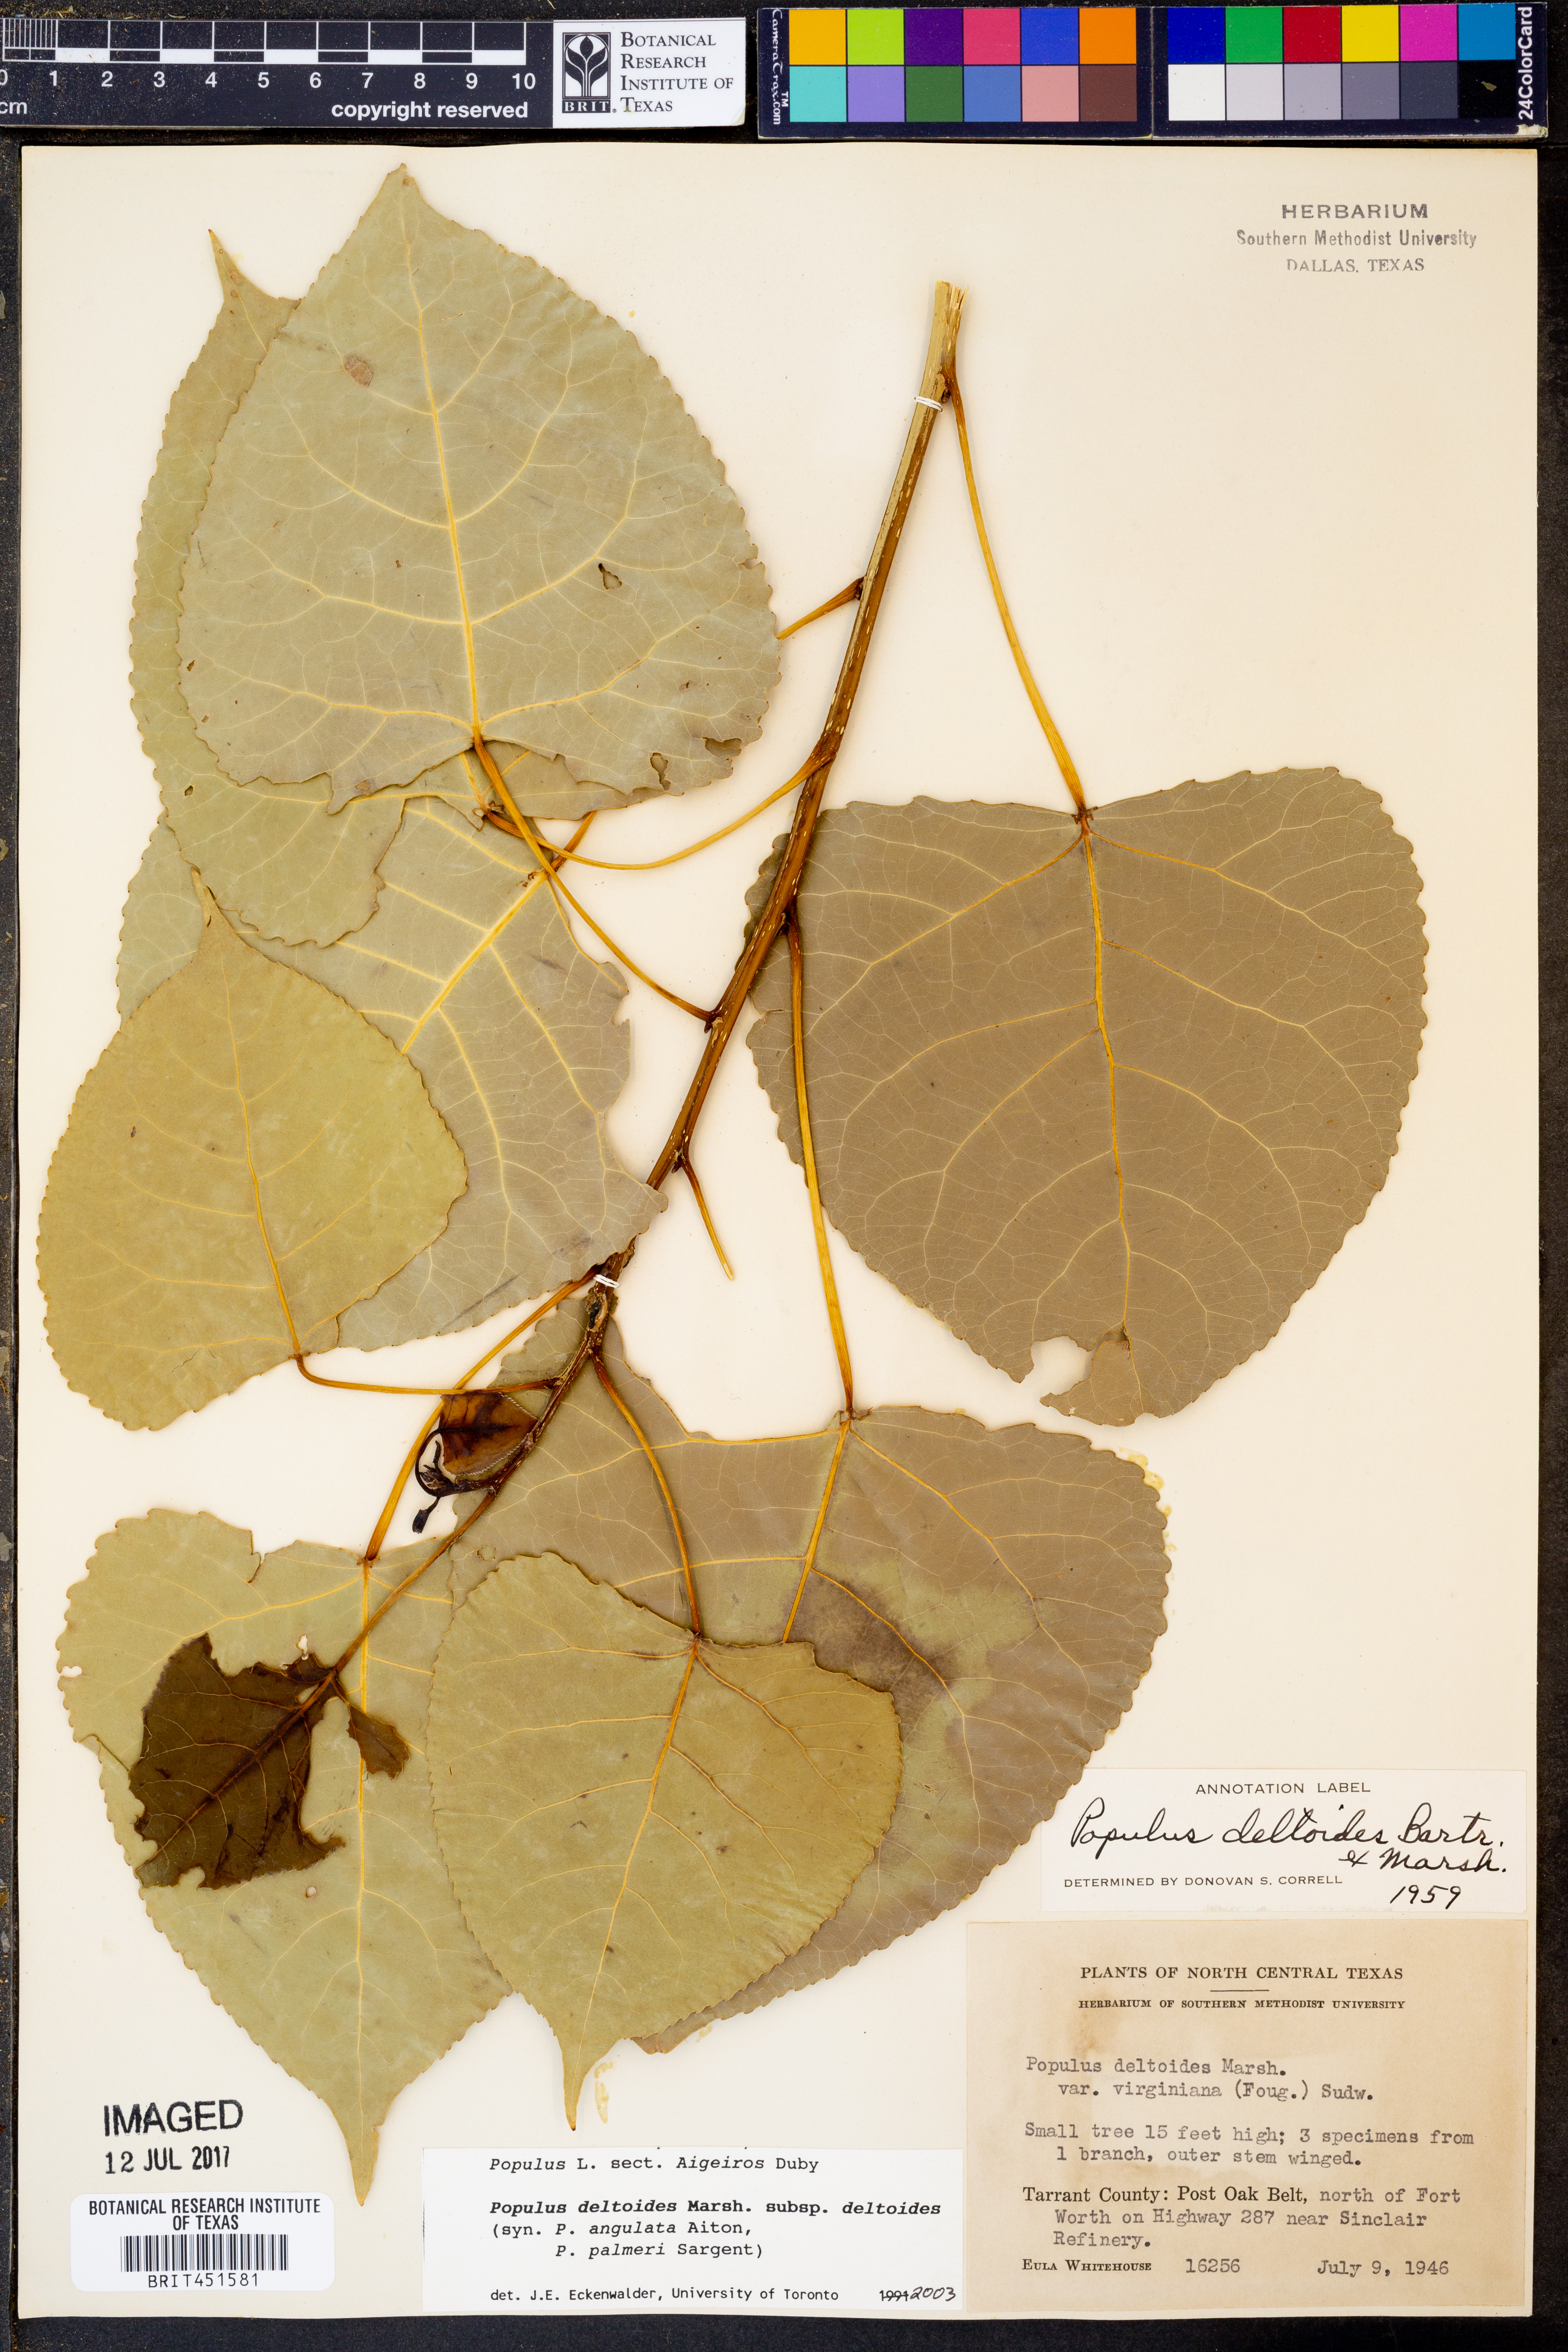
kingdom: Plantae
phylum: Tracheophyta
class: Magnoliopsida
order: Malpighiales
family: Salicaceae
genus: Populus
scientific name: Populus deltoides
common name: Eastern cottonwood
